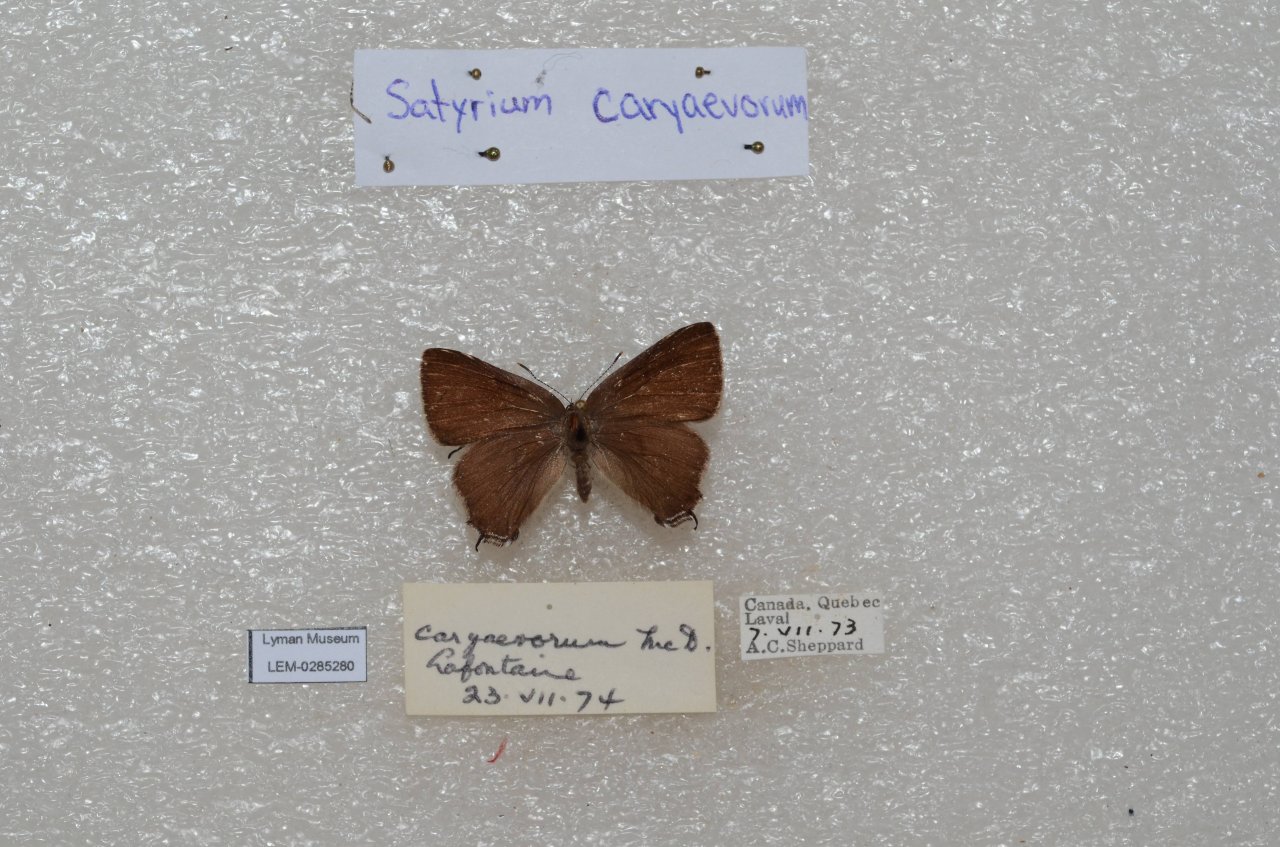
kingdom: Animalia
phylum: Arthropoda
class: Insecta
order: Lepidoptera
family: Lycaenidae
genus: Strymon
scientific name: Strymon caryaevorus
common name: Hickory Hairstreak
